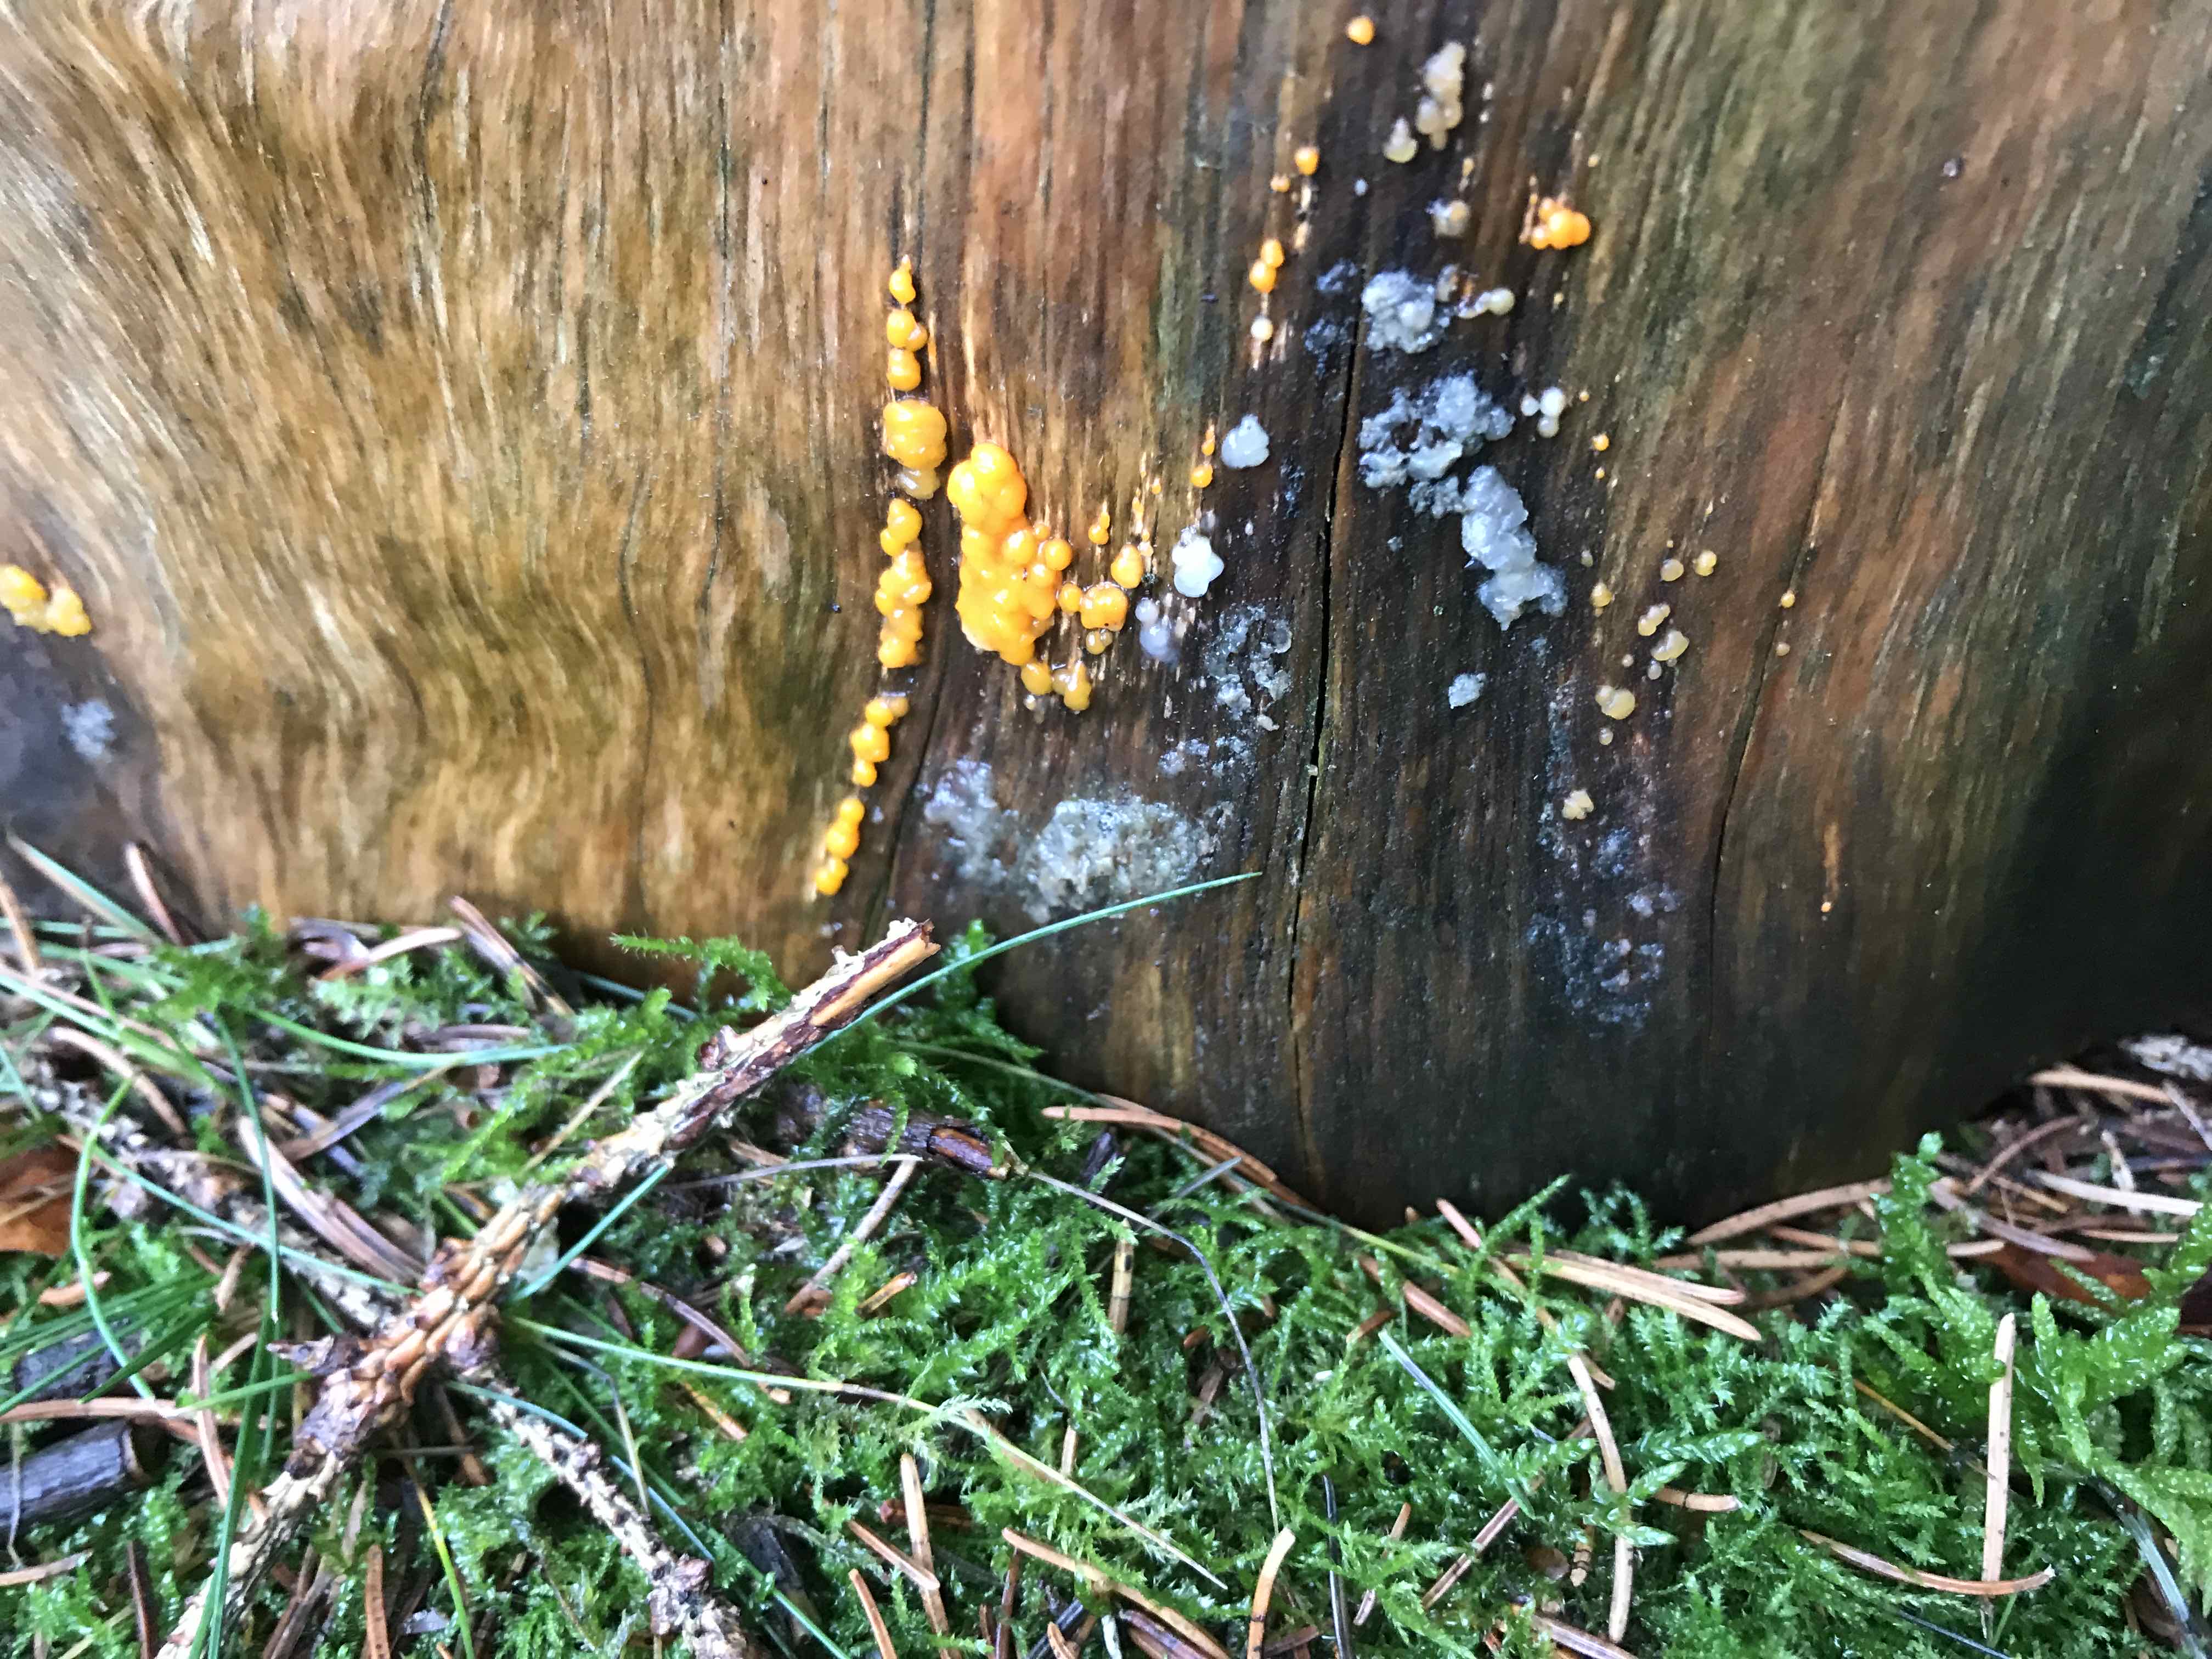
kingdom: Fungi
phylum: Basidiomycota
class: Dacrymycetes
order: Dacrymycetales
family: Dacrymycetaceae
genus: Dacrymyces
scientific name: Dacrymyces stillatus
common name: almindelig tåresvamp
